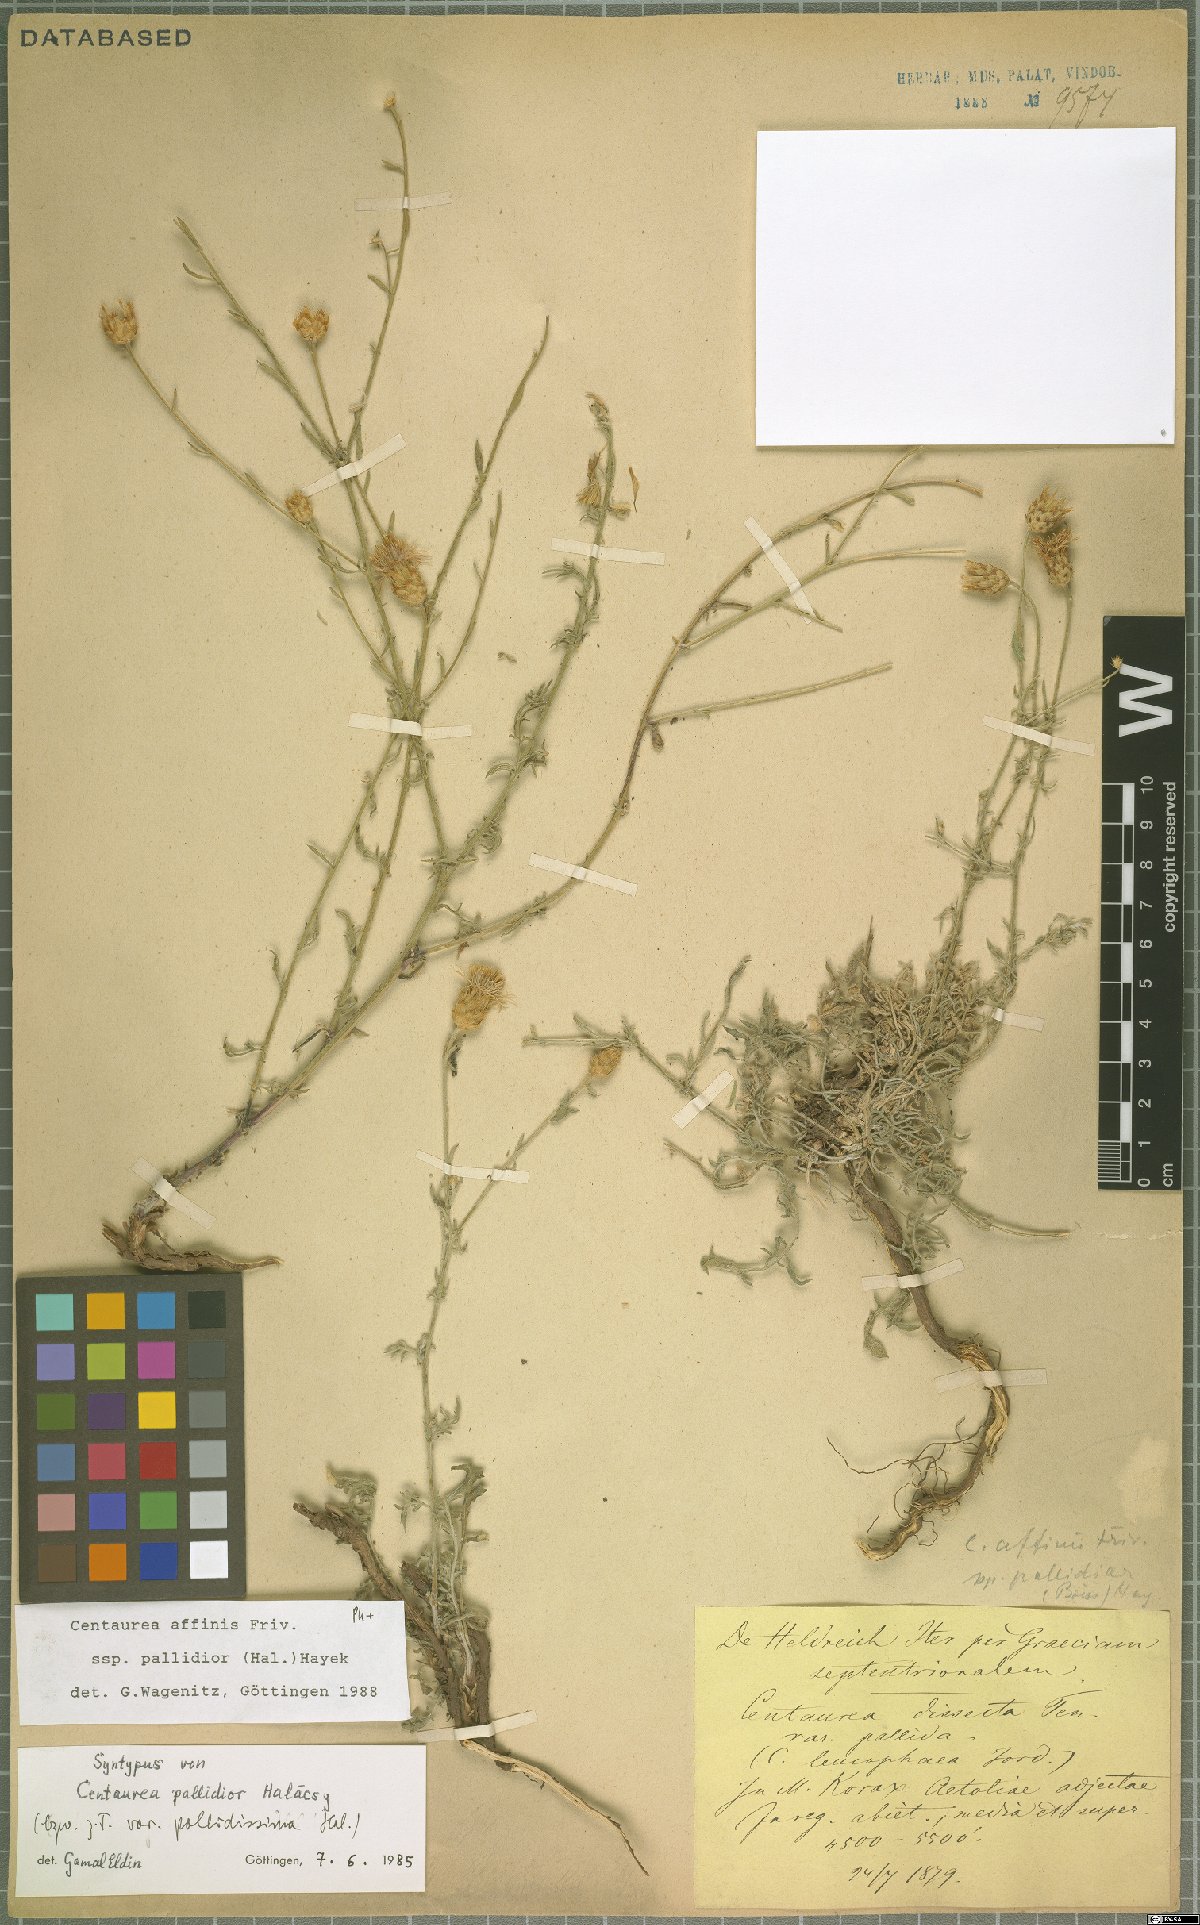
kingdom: Plantae
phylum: Tracheophyta
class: Magnoliopsida
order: Asterales
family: Asteraceae
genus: Centaurea
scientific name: Centaurea affinis
